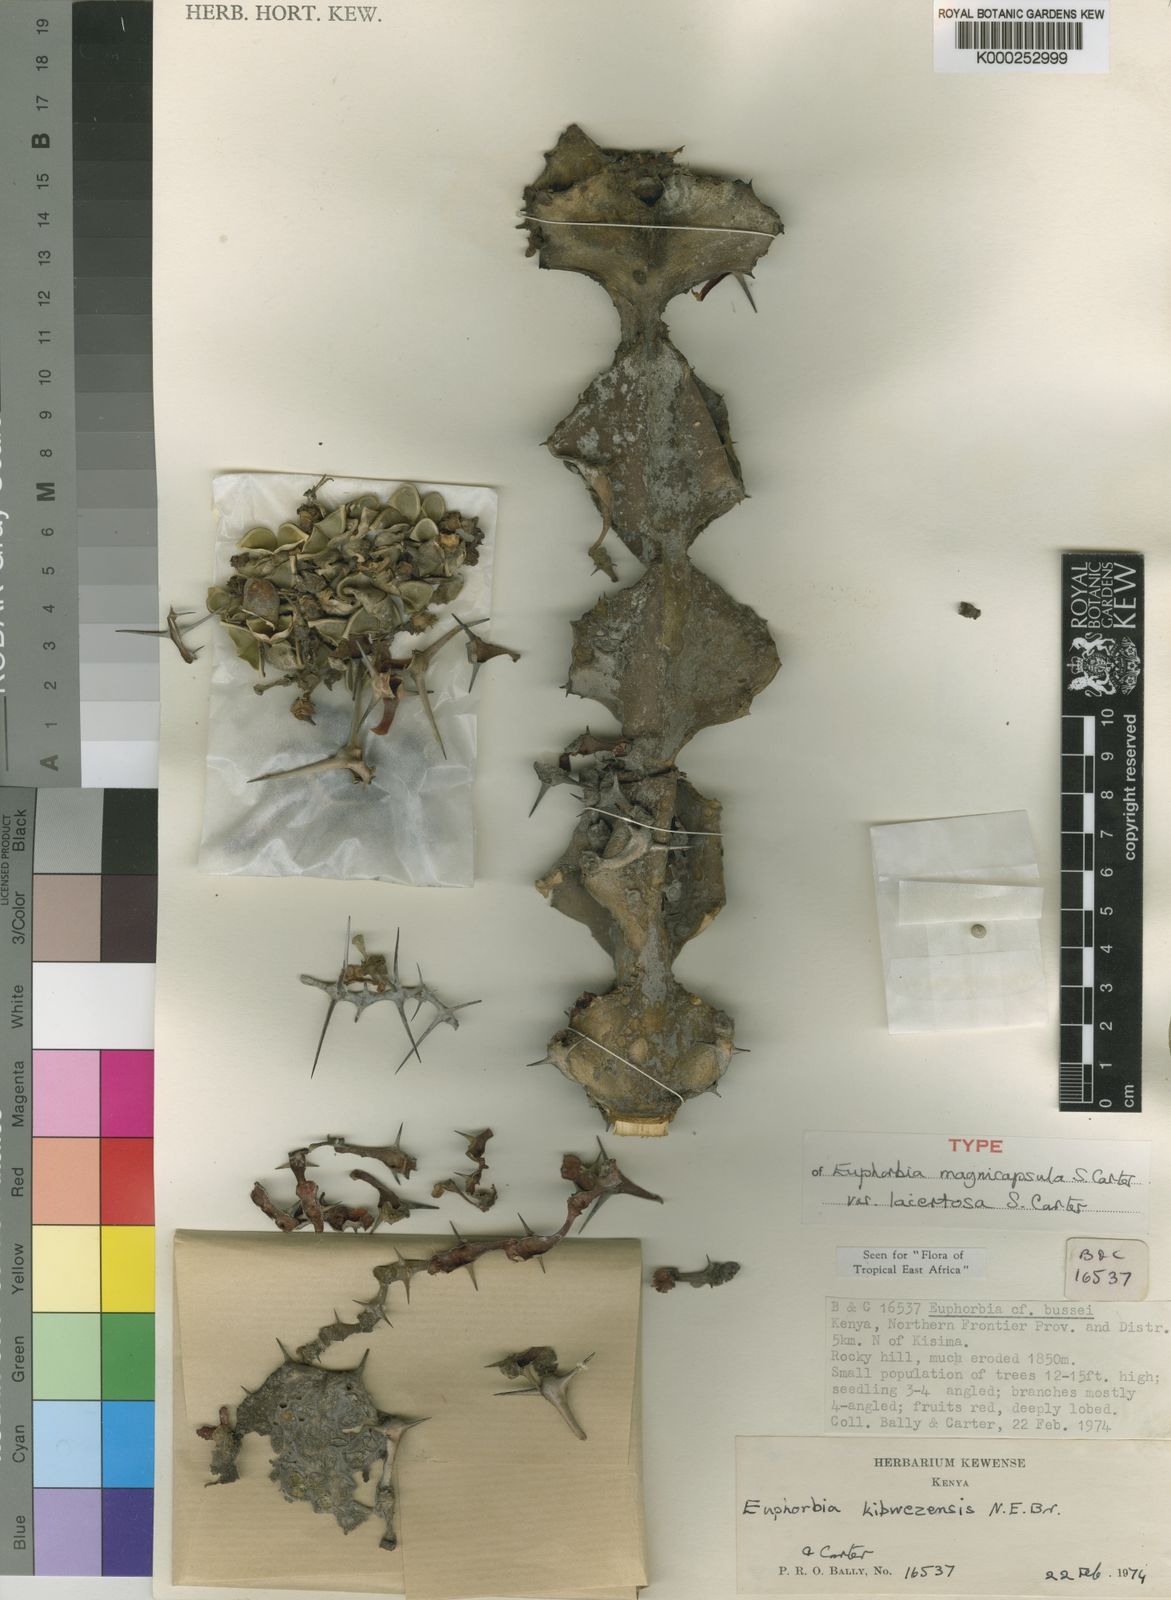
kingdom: Plantae
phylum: Tracheophyta
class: Magnoliopsida
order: Malpighiales
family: Euphorbiaceae
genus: Euphorbia
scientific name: Euphorbia magnicapsula
